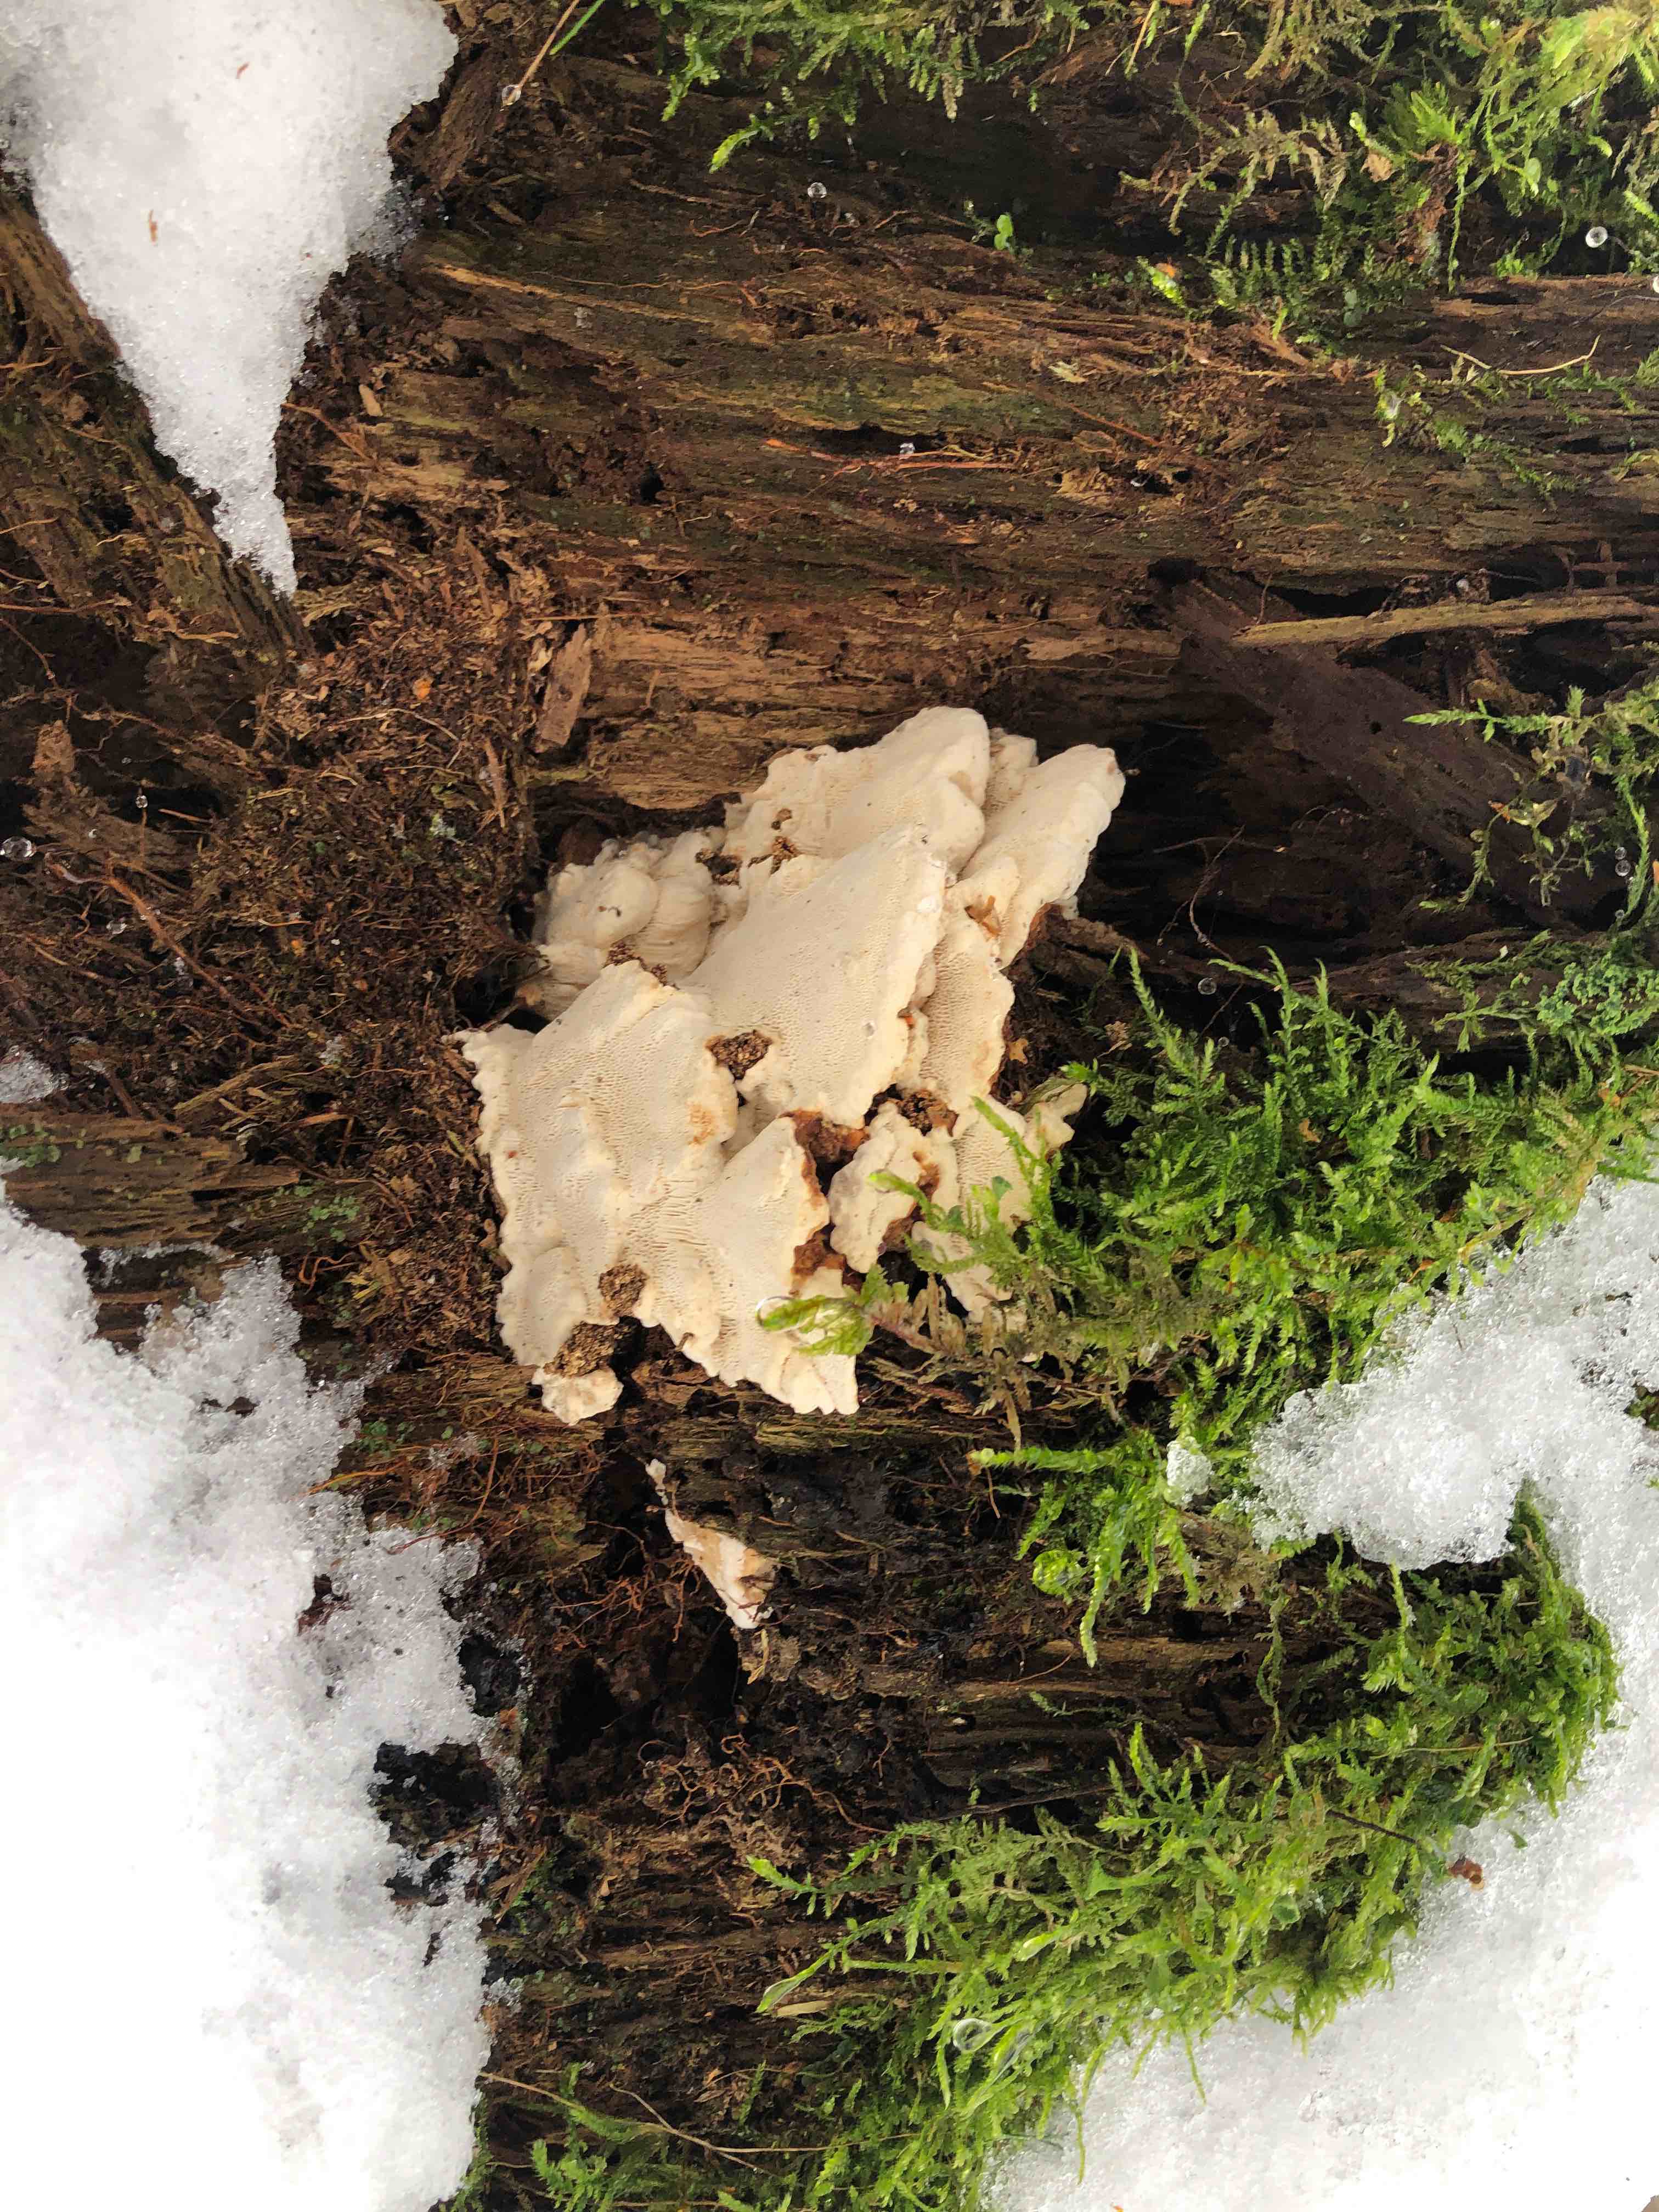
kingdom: Fungi
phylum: Basidiomycota
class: Agaricomycetes
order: Russulales
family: Bondarzewiaceae
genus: Heterobasidion
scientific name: Heterobasidion annosum
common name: almindelig rodfordærver
